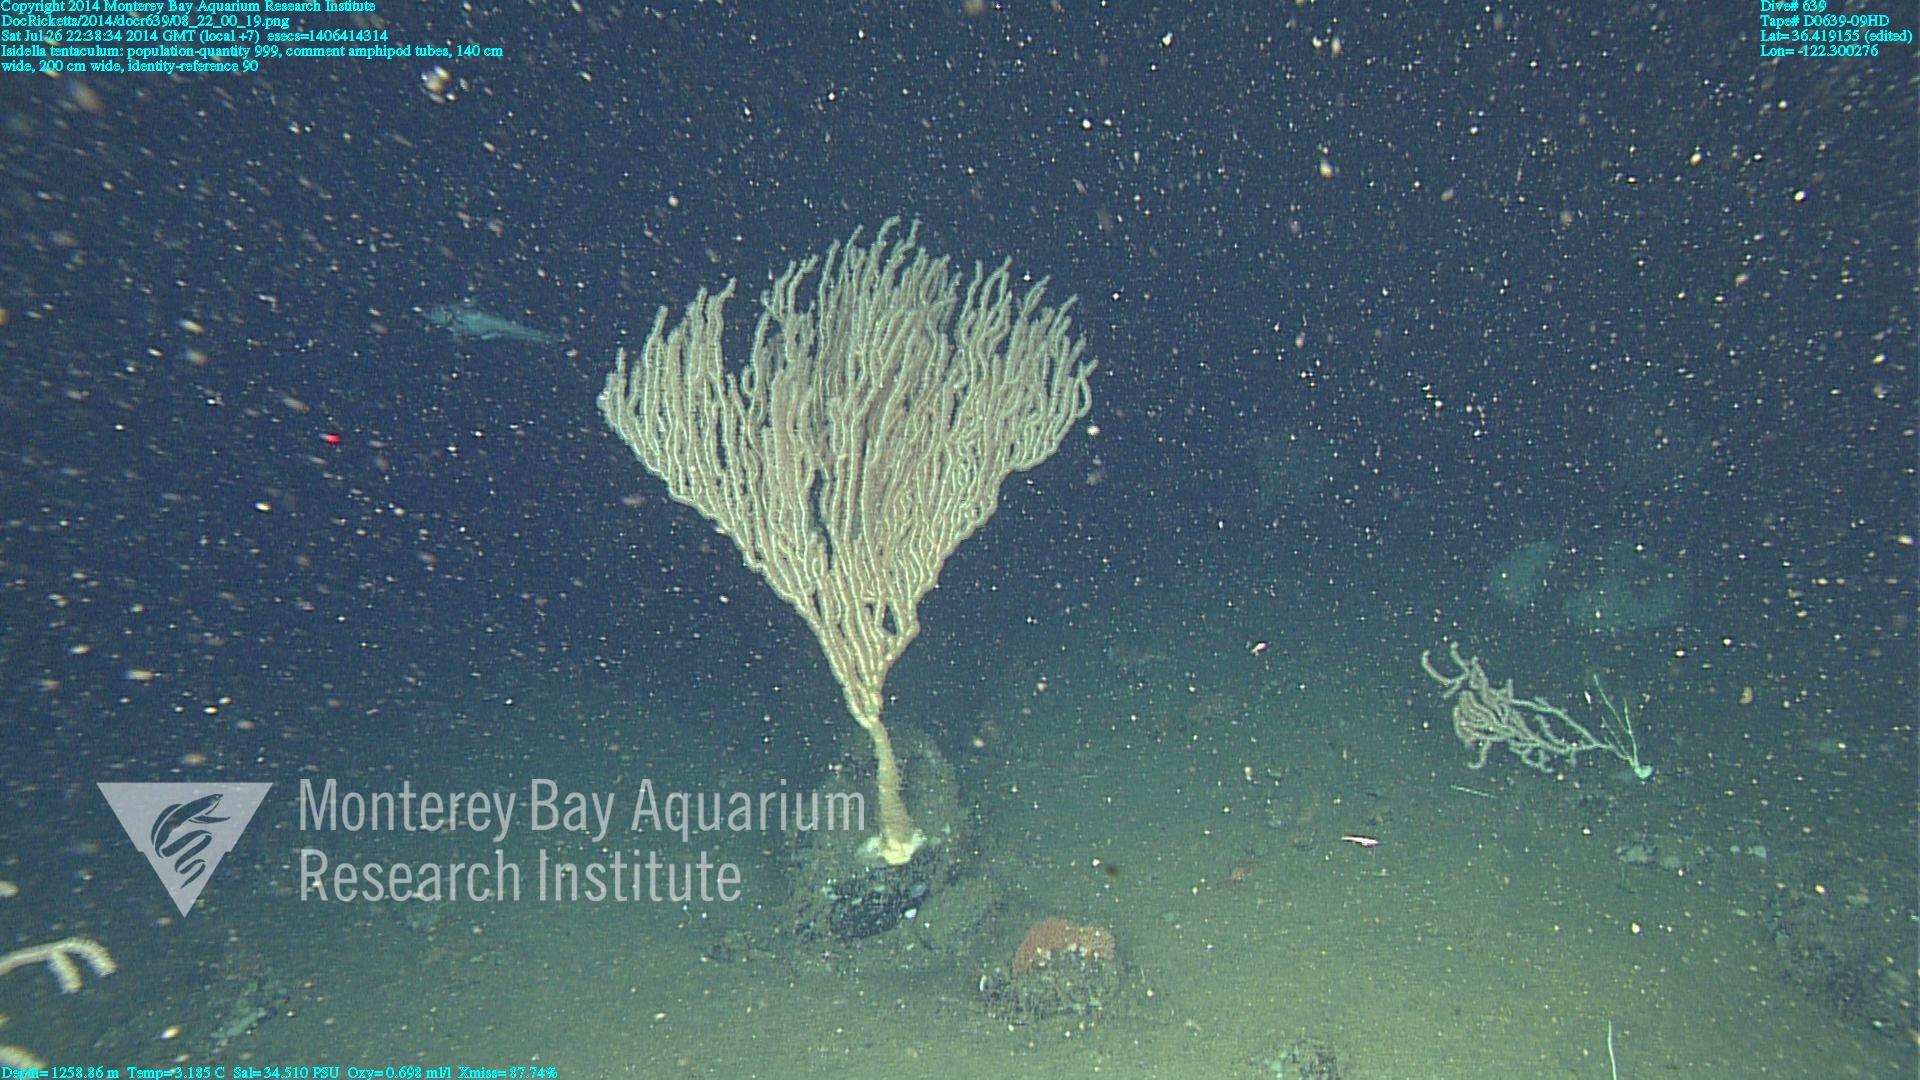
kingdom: Animalia
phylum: Cnidaria
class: Anthozoa
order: Scleralcyonacea
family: Keratoisididae
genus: Isidella
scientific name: Isidella tentaculum
